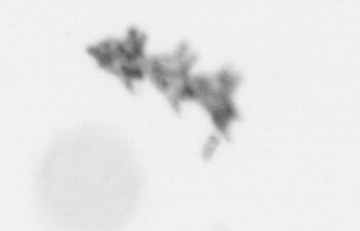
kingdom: Animalia
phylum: Cnidaria
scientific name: Cnidaria
